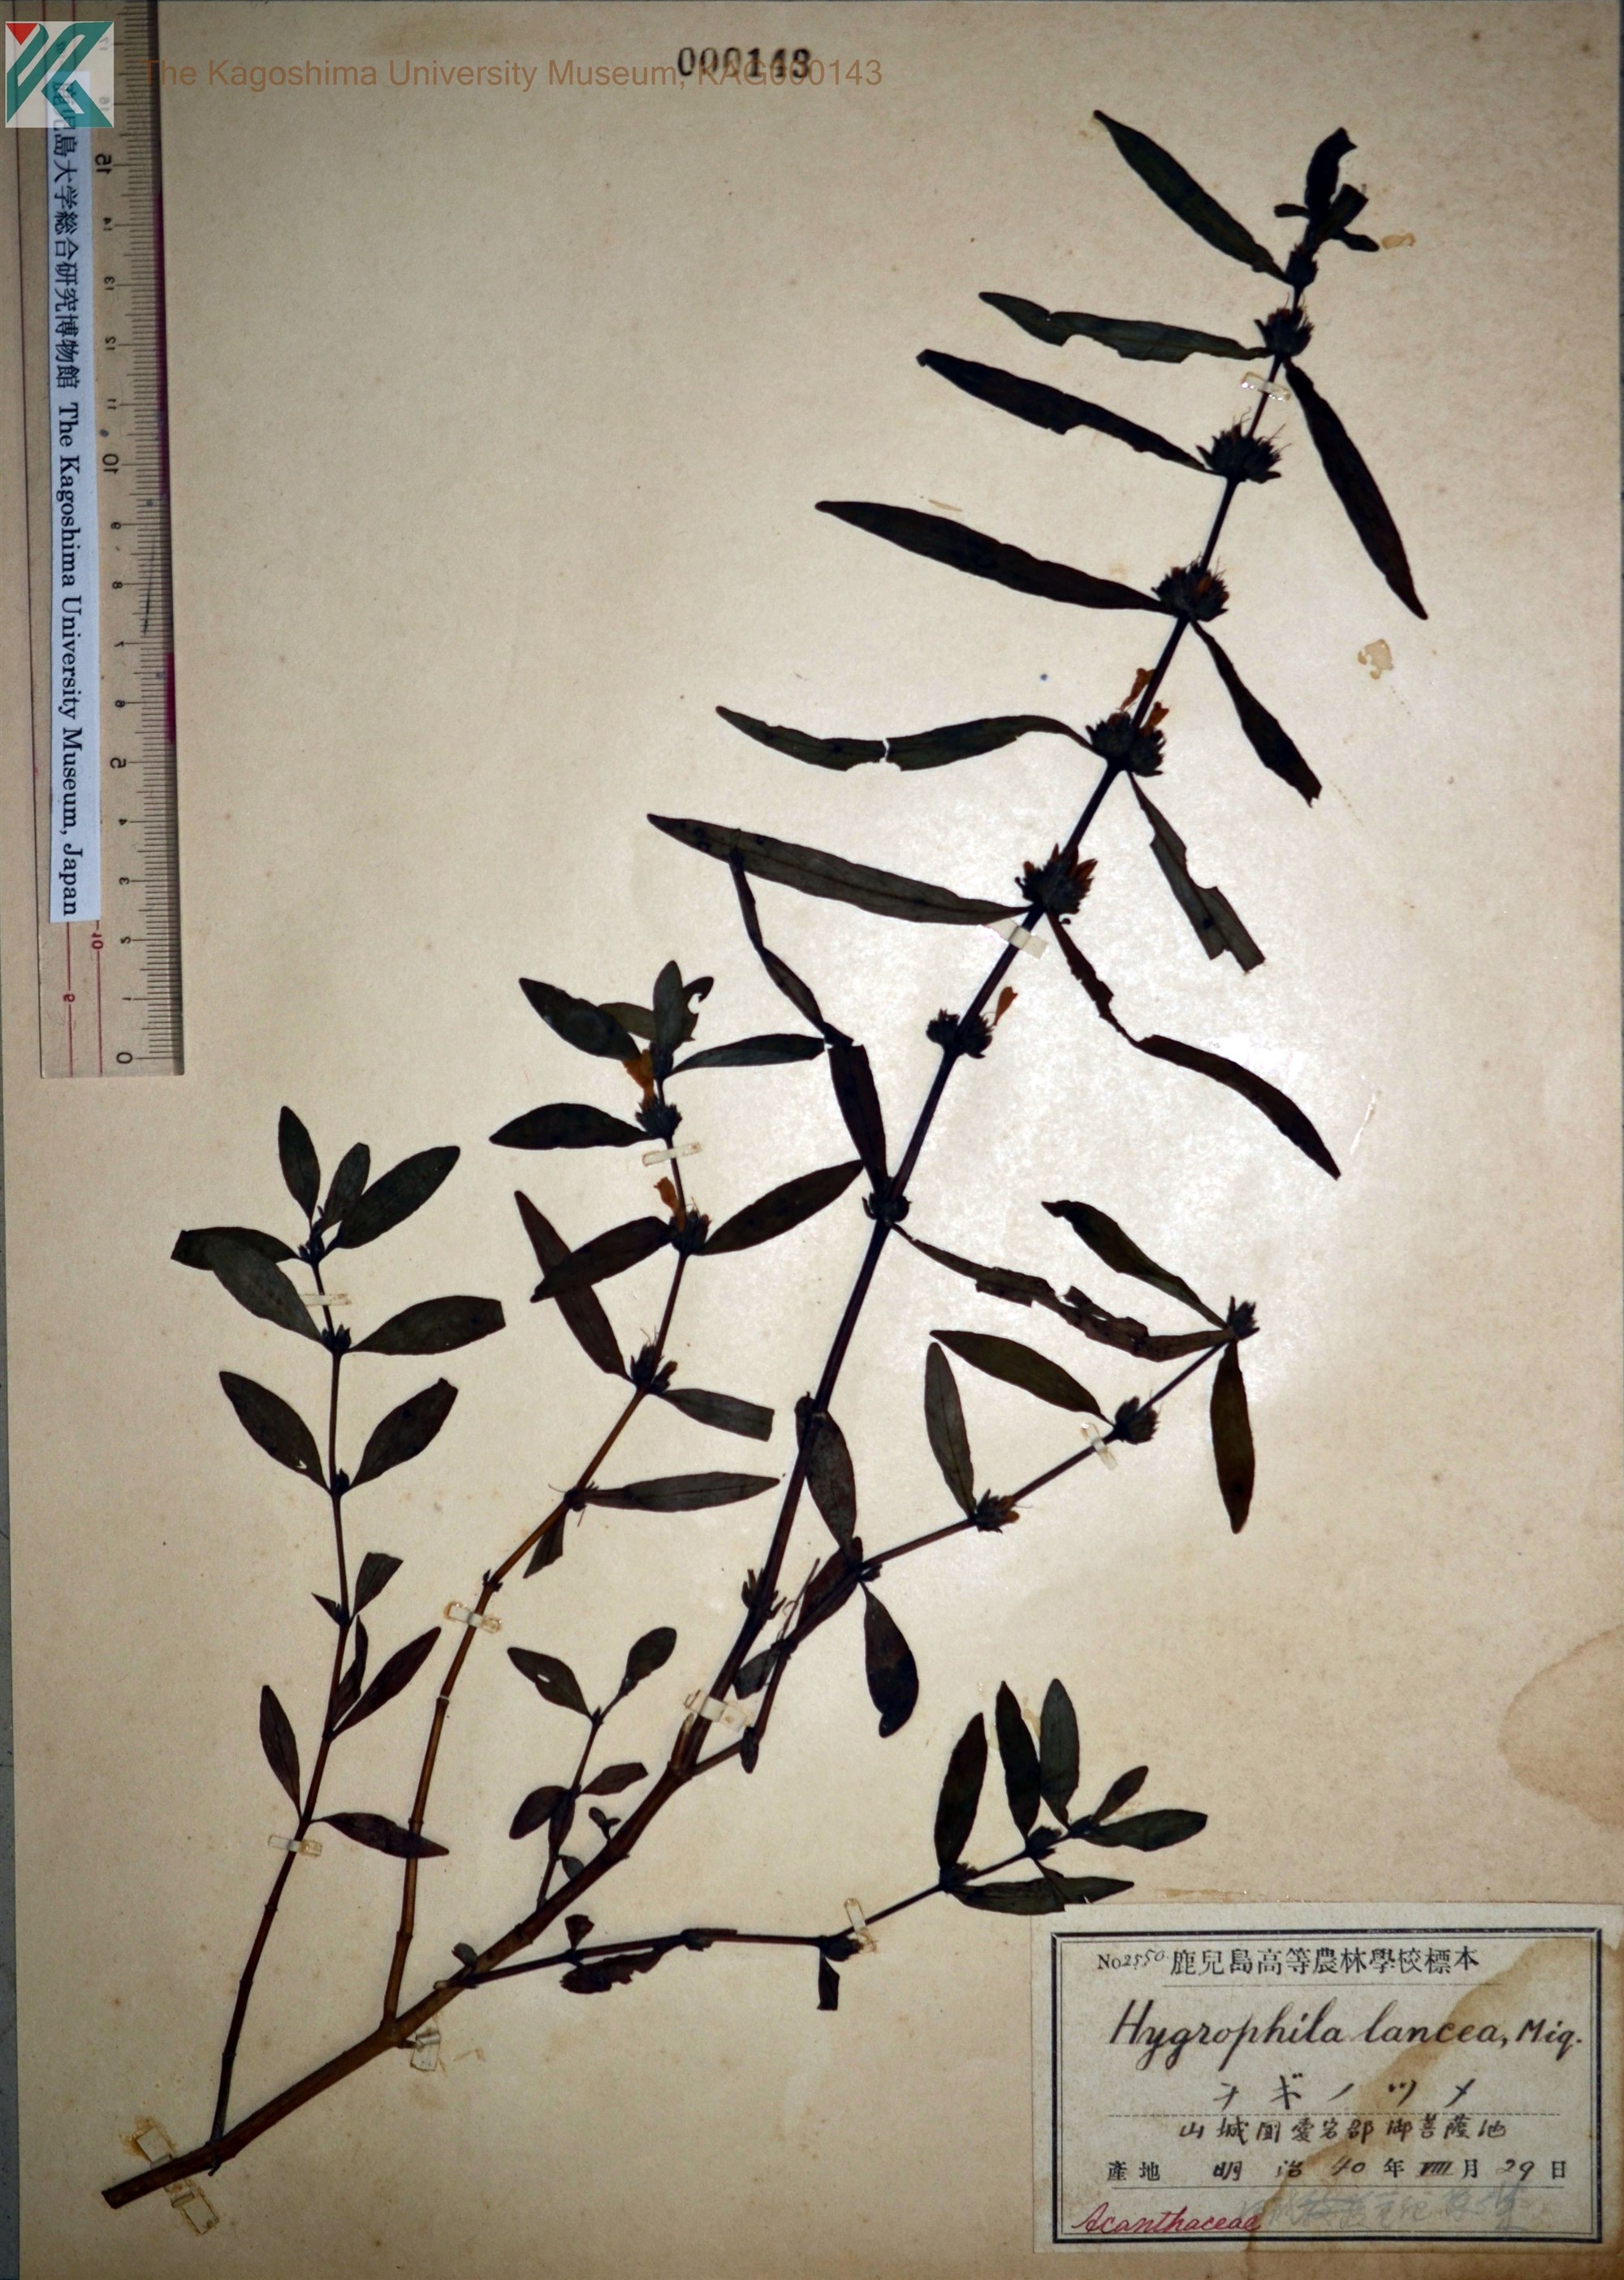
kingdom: Plantae
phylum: Tracheophyta
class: Magnoliopsida
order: Lamiales
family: Acanthaceae
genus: Hygrophila
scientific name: Hygrophila ringens
